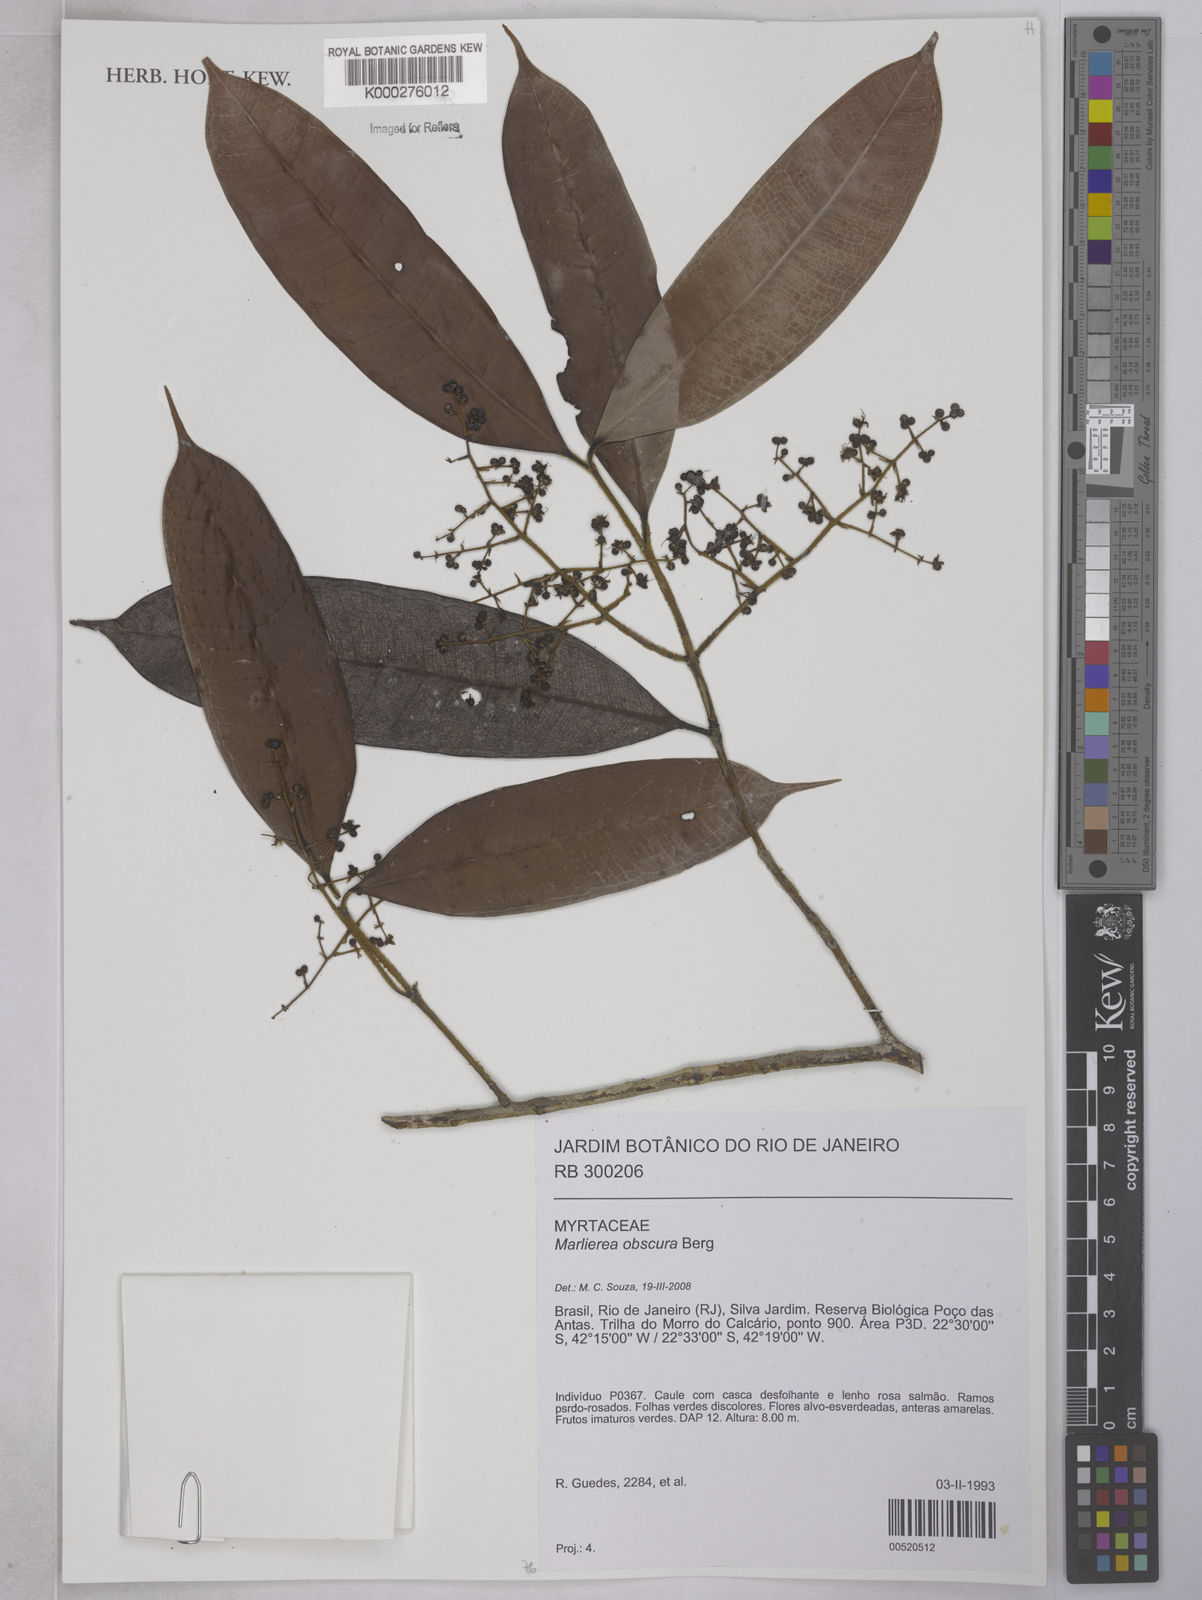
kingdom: Plantae
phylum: Tracheophyta
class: Magnoliopsida
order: Myrtales
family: Myrtaceae
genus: Myrcia
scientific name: Myrcia neoriedeliana
